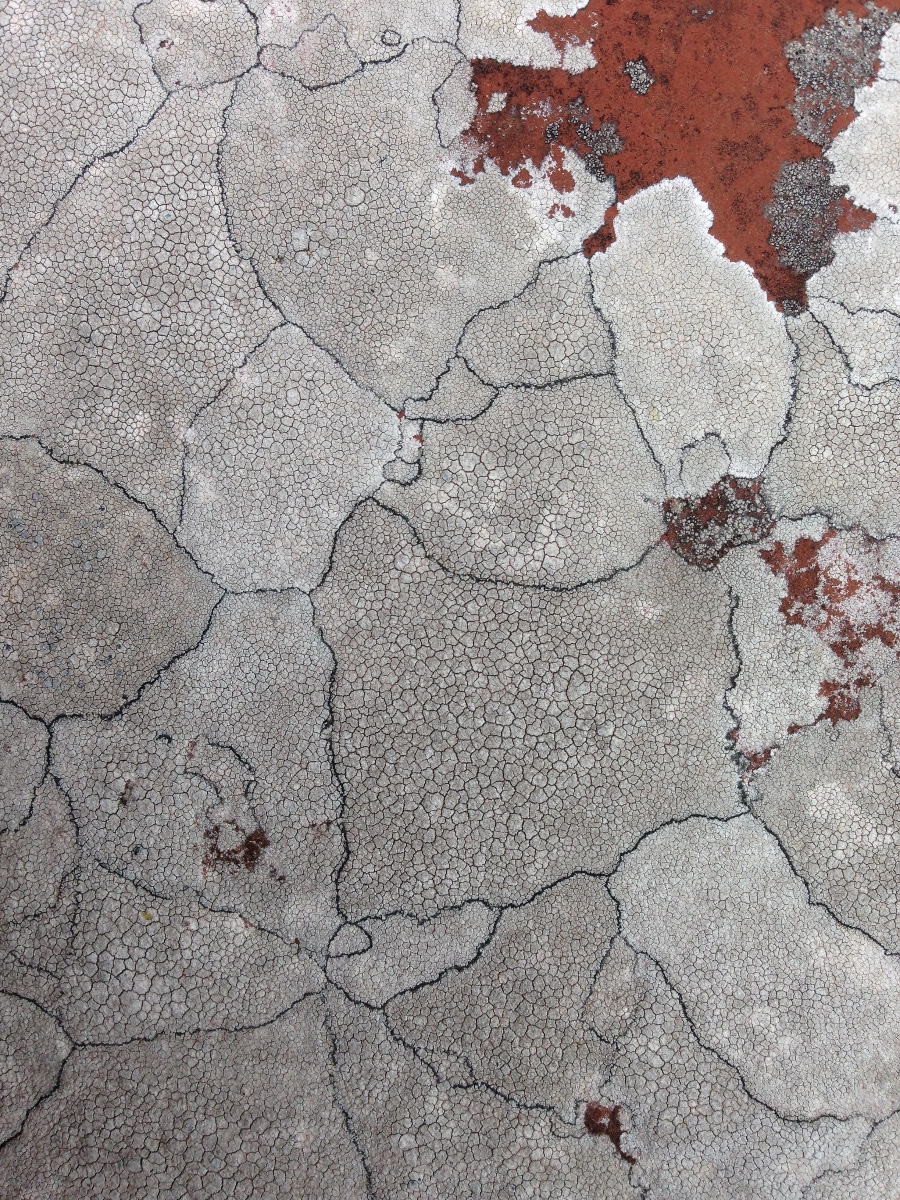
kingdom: Fungi
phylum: Ascomycota
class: Lecanoromycetes
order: Lecanorales
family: Lecanoraceae
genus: Glaucomaria
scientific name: Glaucomaria rupicola
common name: stengærde-kantskivelav
